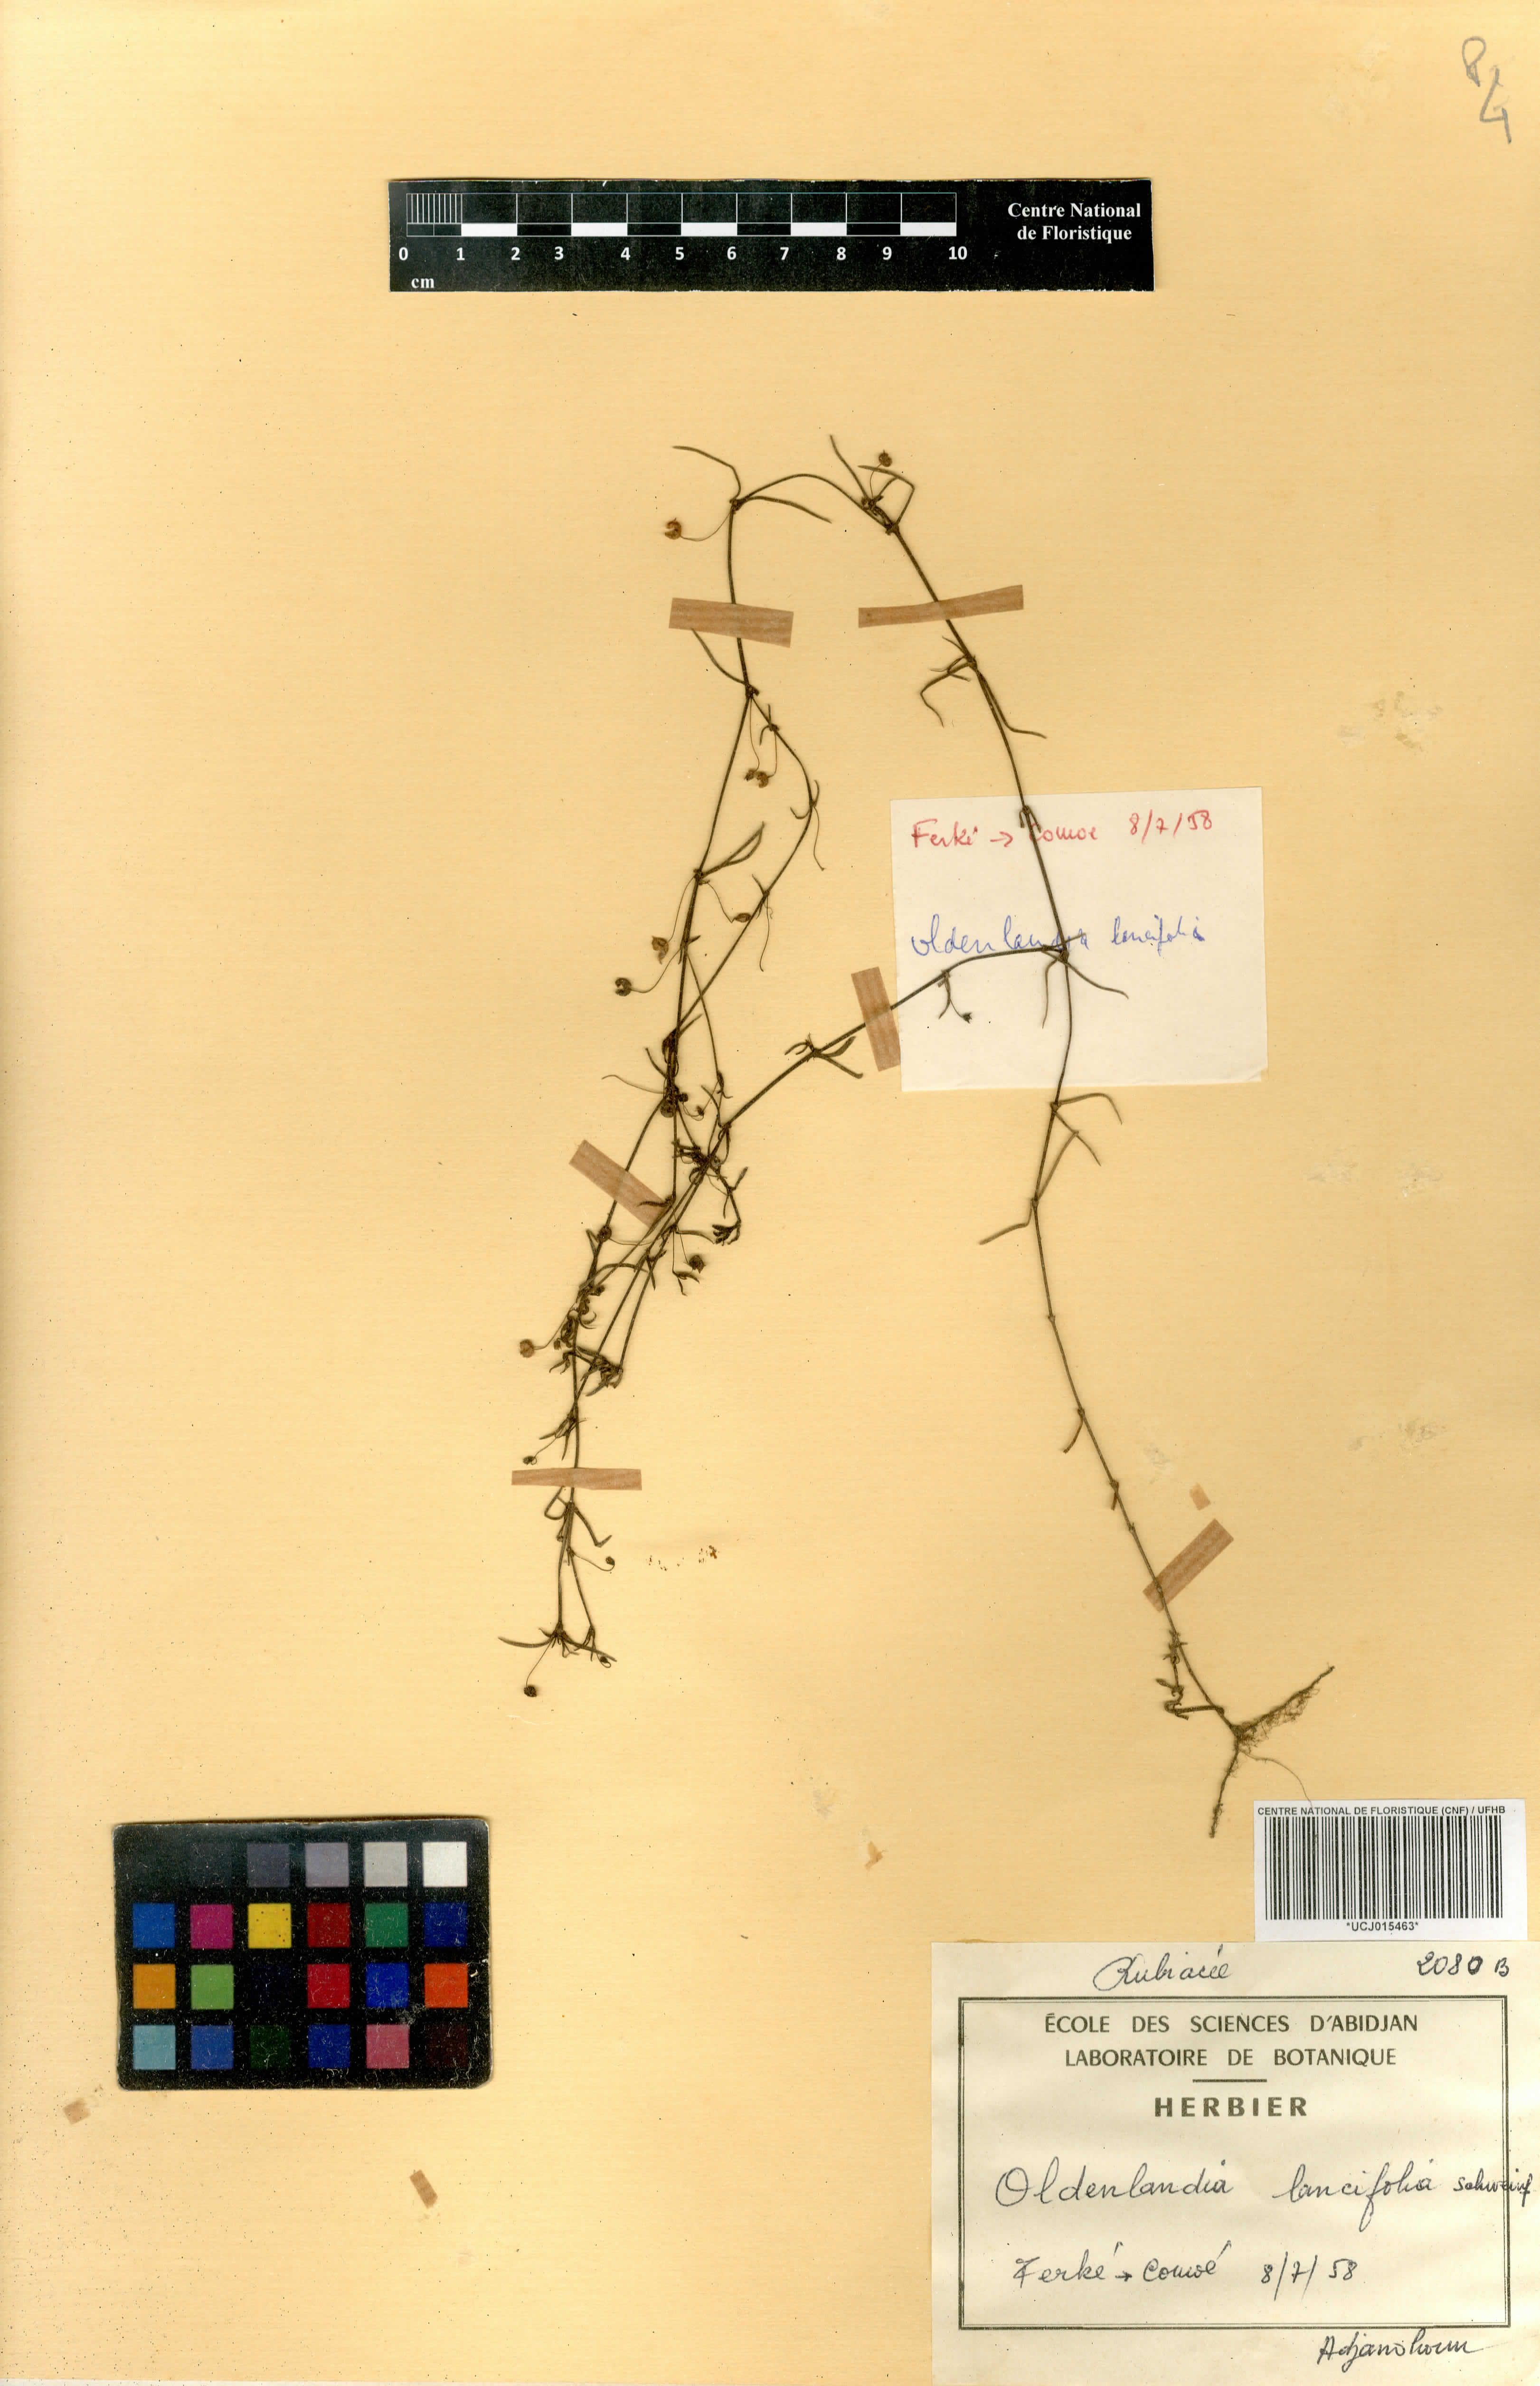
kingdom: Plantae
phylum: Tracheophyta
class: Magnoliopsida
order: Gentianales
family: Rubiaceae
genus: Oldenlandia
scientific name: Oldenlandia lancifolia
